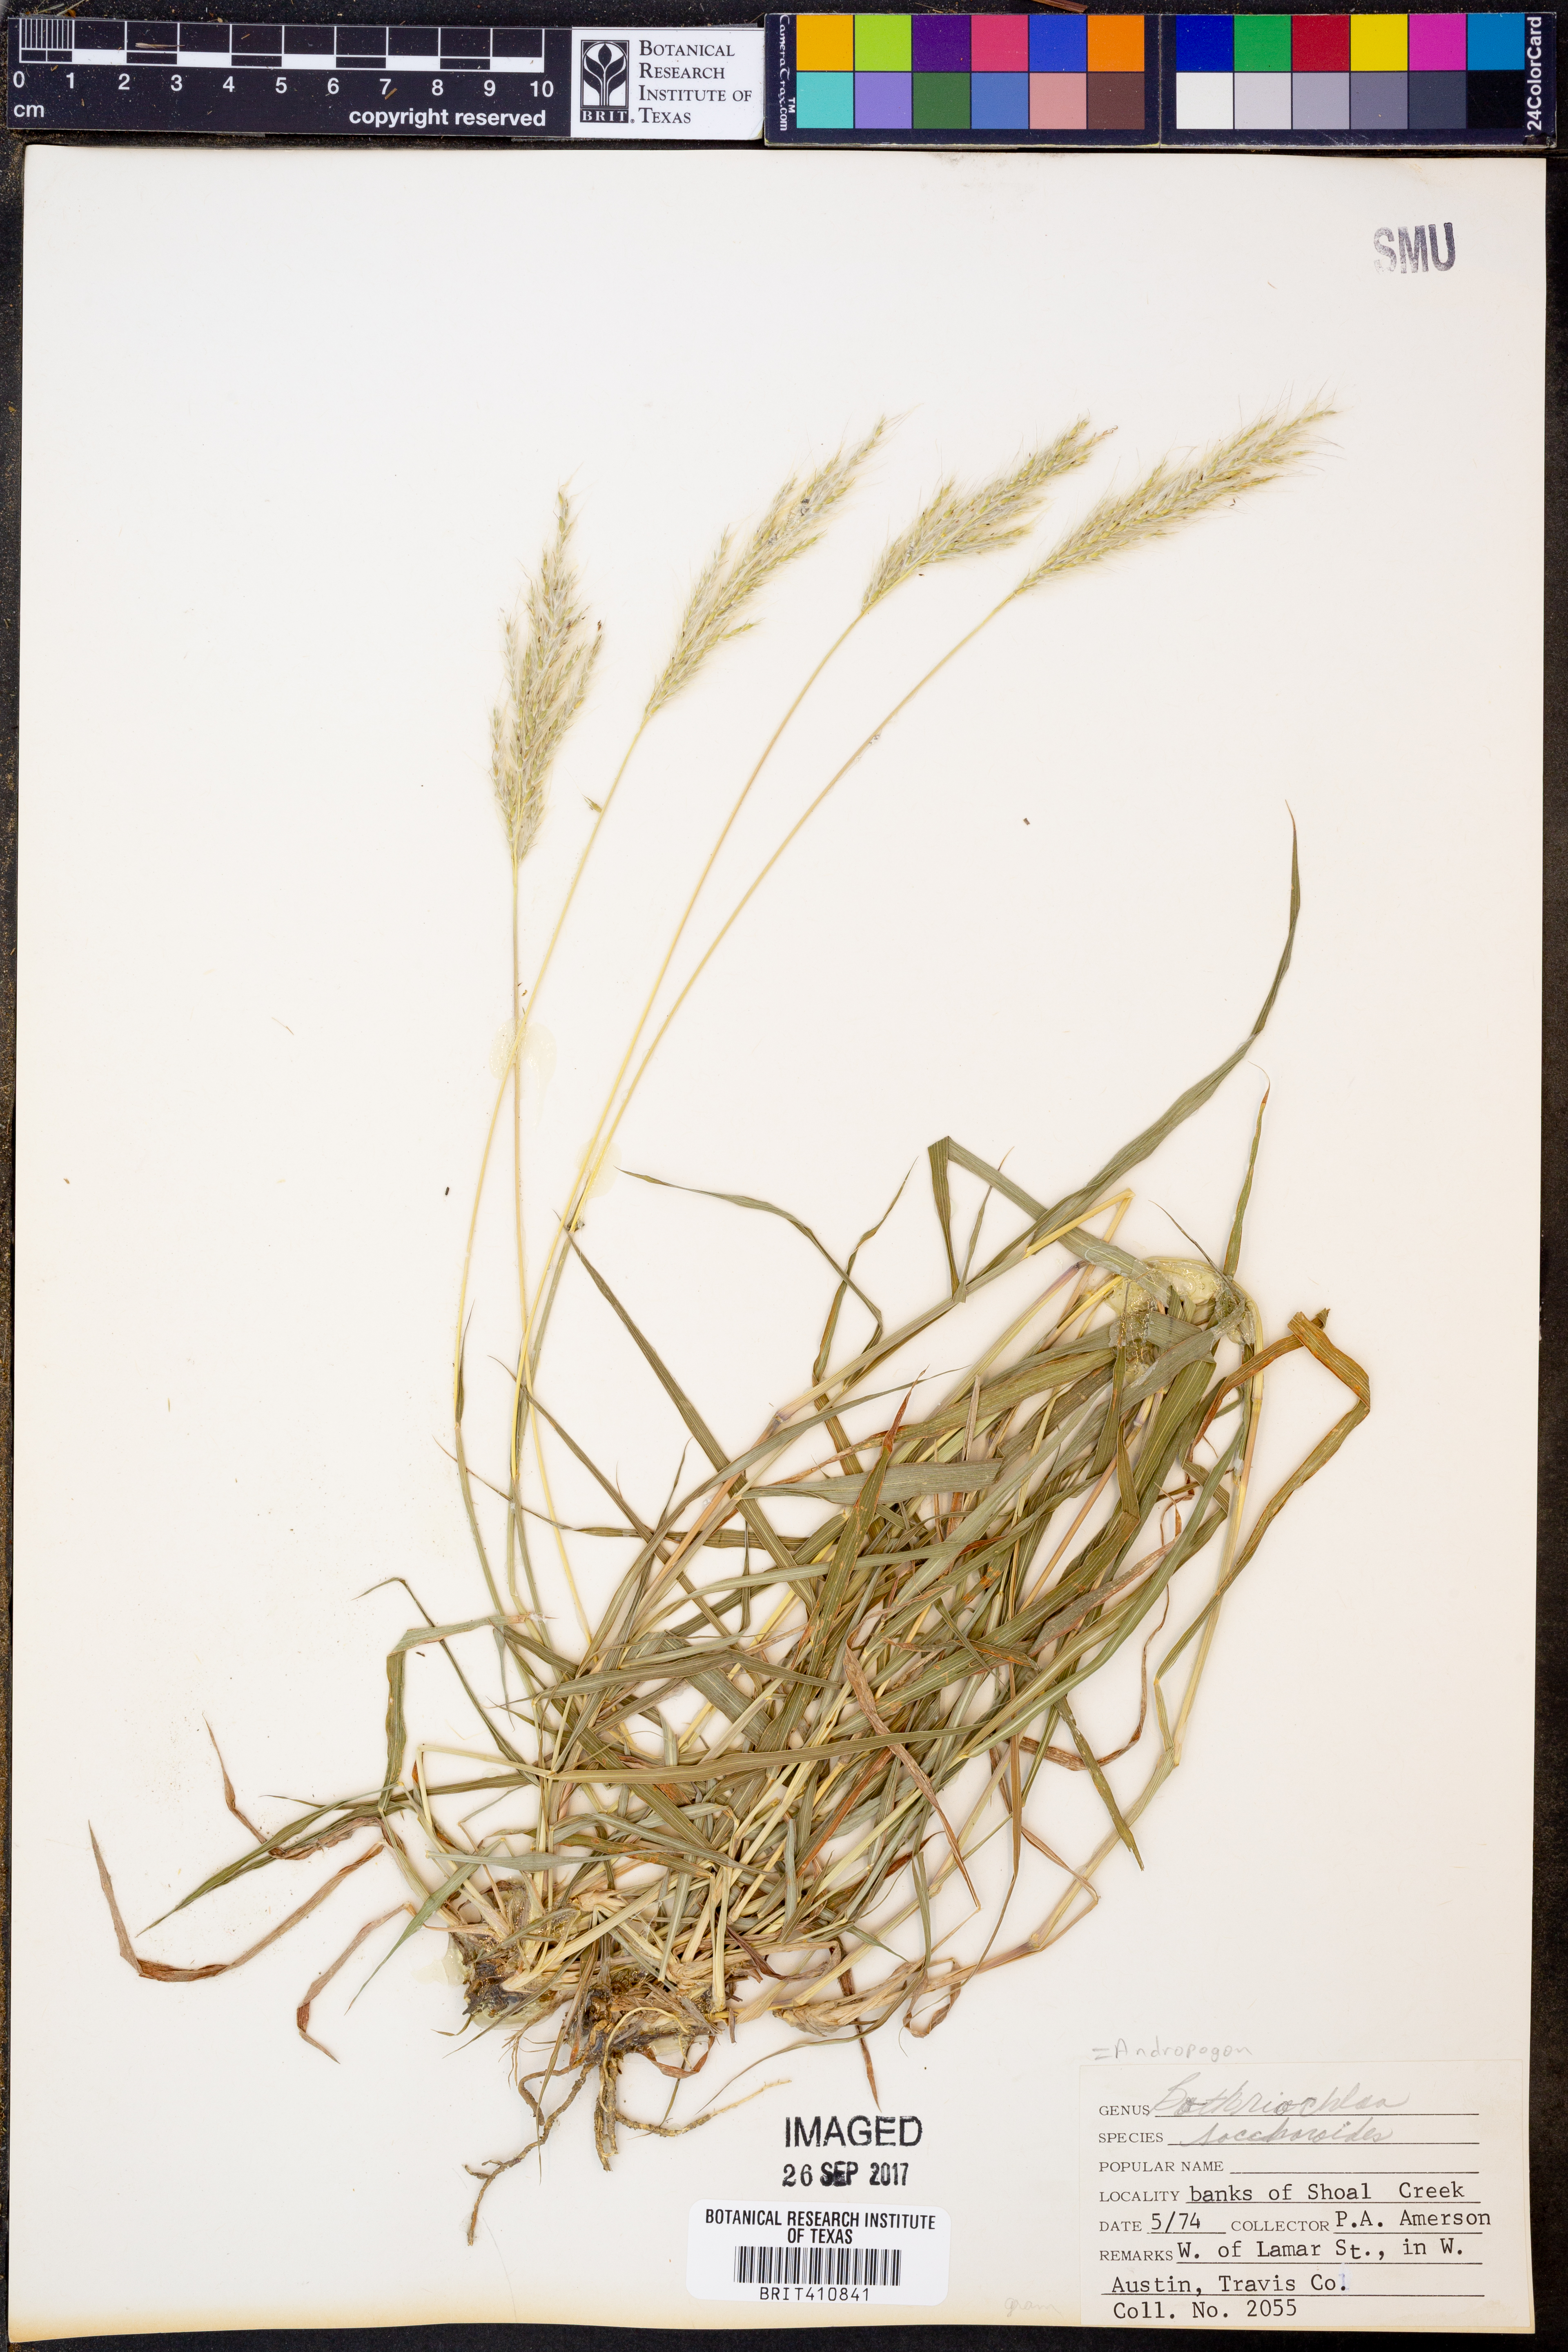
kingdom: Plantae
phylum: Tracheophyta
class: Liliopsida
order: Poales
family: Poaceae
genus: Bothriochloa
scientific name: Bothriochloa saccharoides
